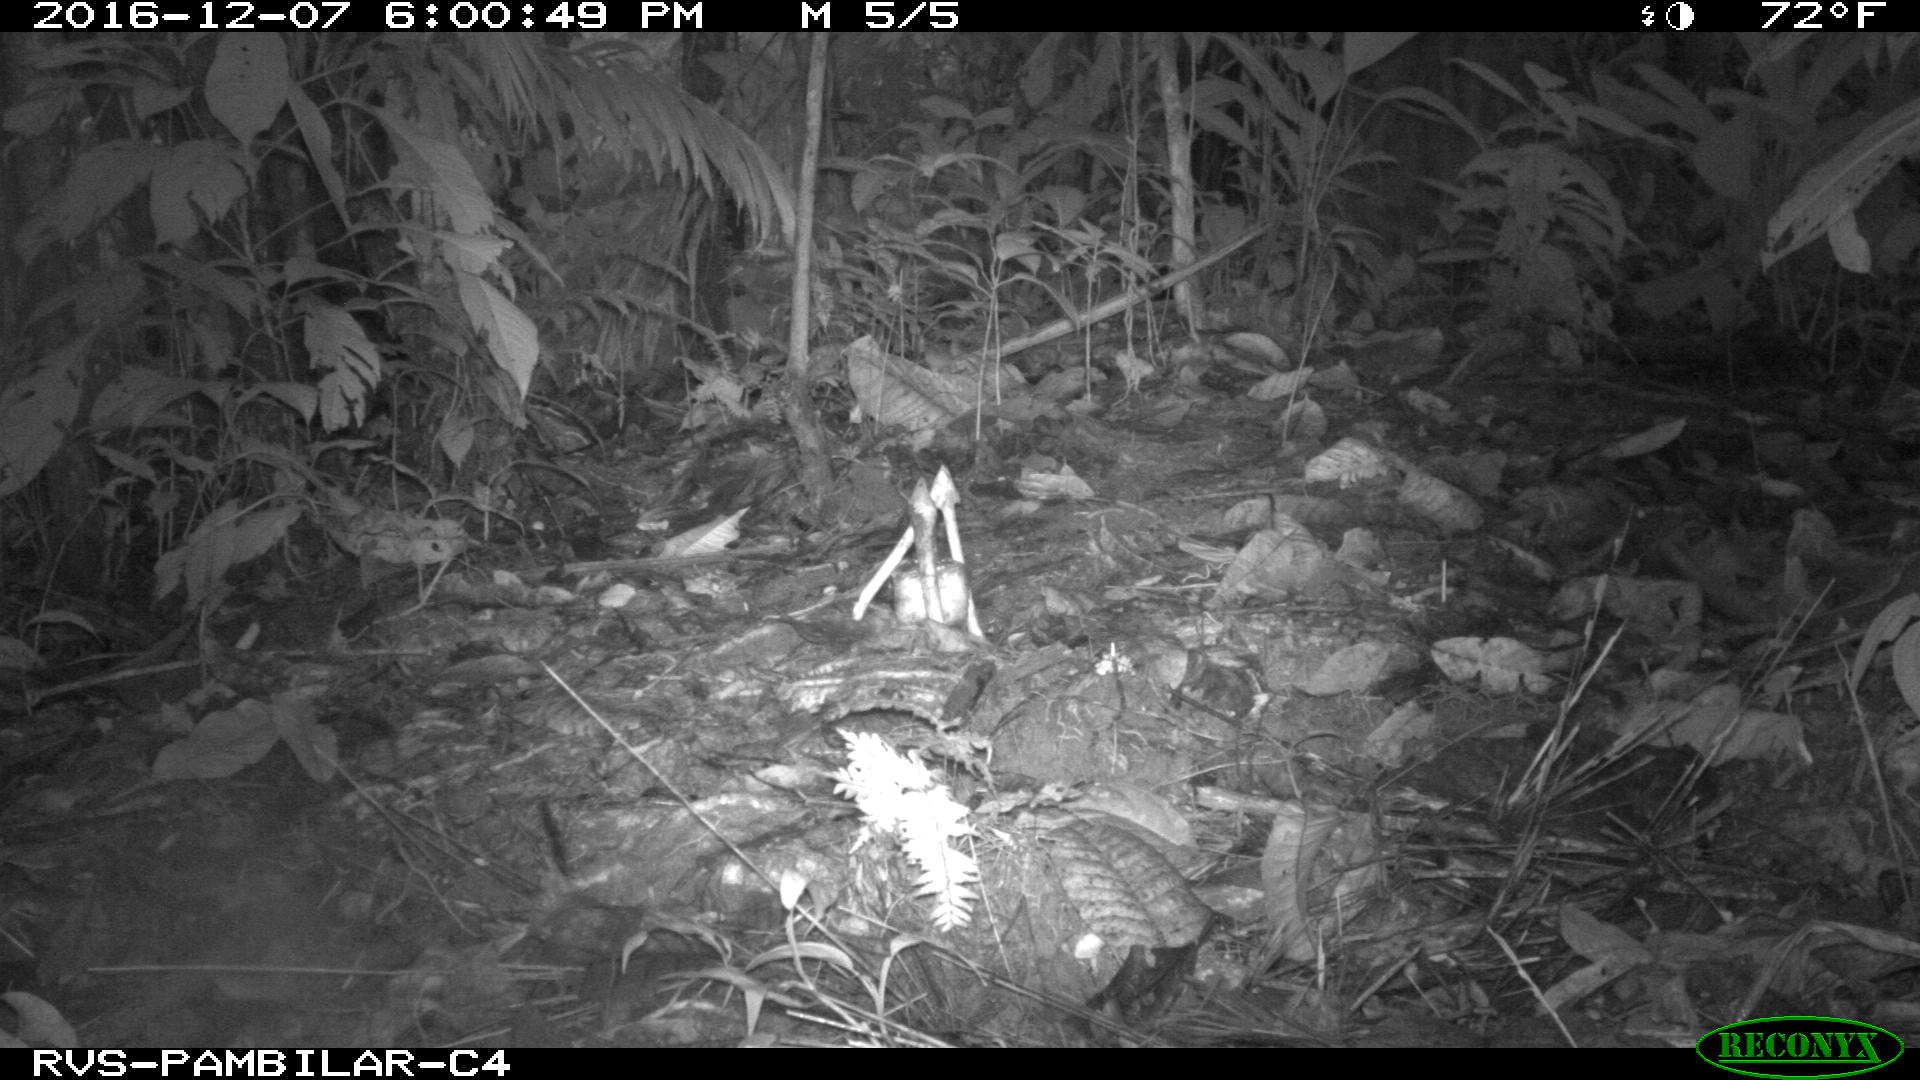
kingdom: Animalia
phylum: Chordata
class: Mammalia
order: Rodentia
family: Dasyproctidae
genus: Dasyprocta
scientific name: Dasyprocta punctata
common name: Central american agouti
